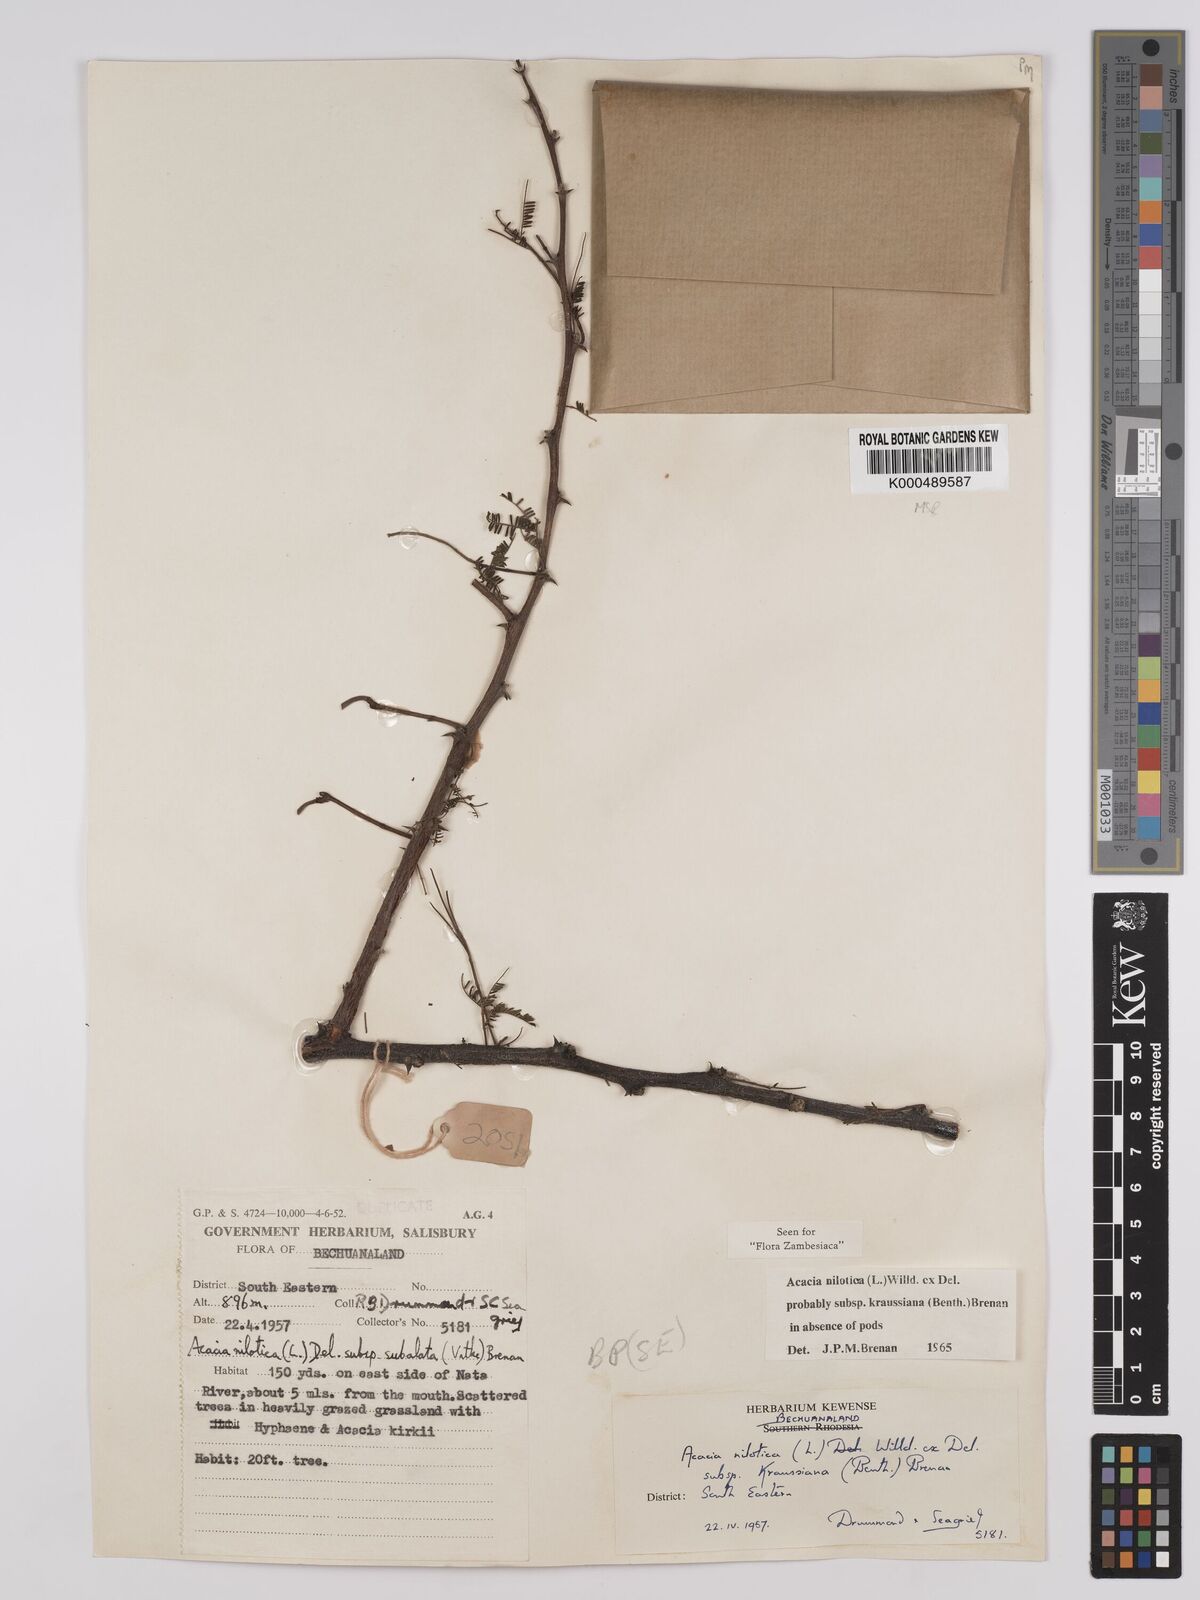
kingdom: Plantae
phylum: Tracheophyta
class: Magnoliopsida
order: Fabales
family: Fabaceae
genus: Vachellia
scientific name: Vachellia nilotica
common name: Arabic gumtree
